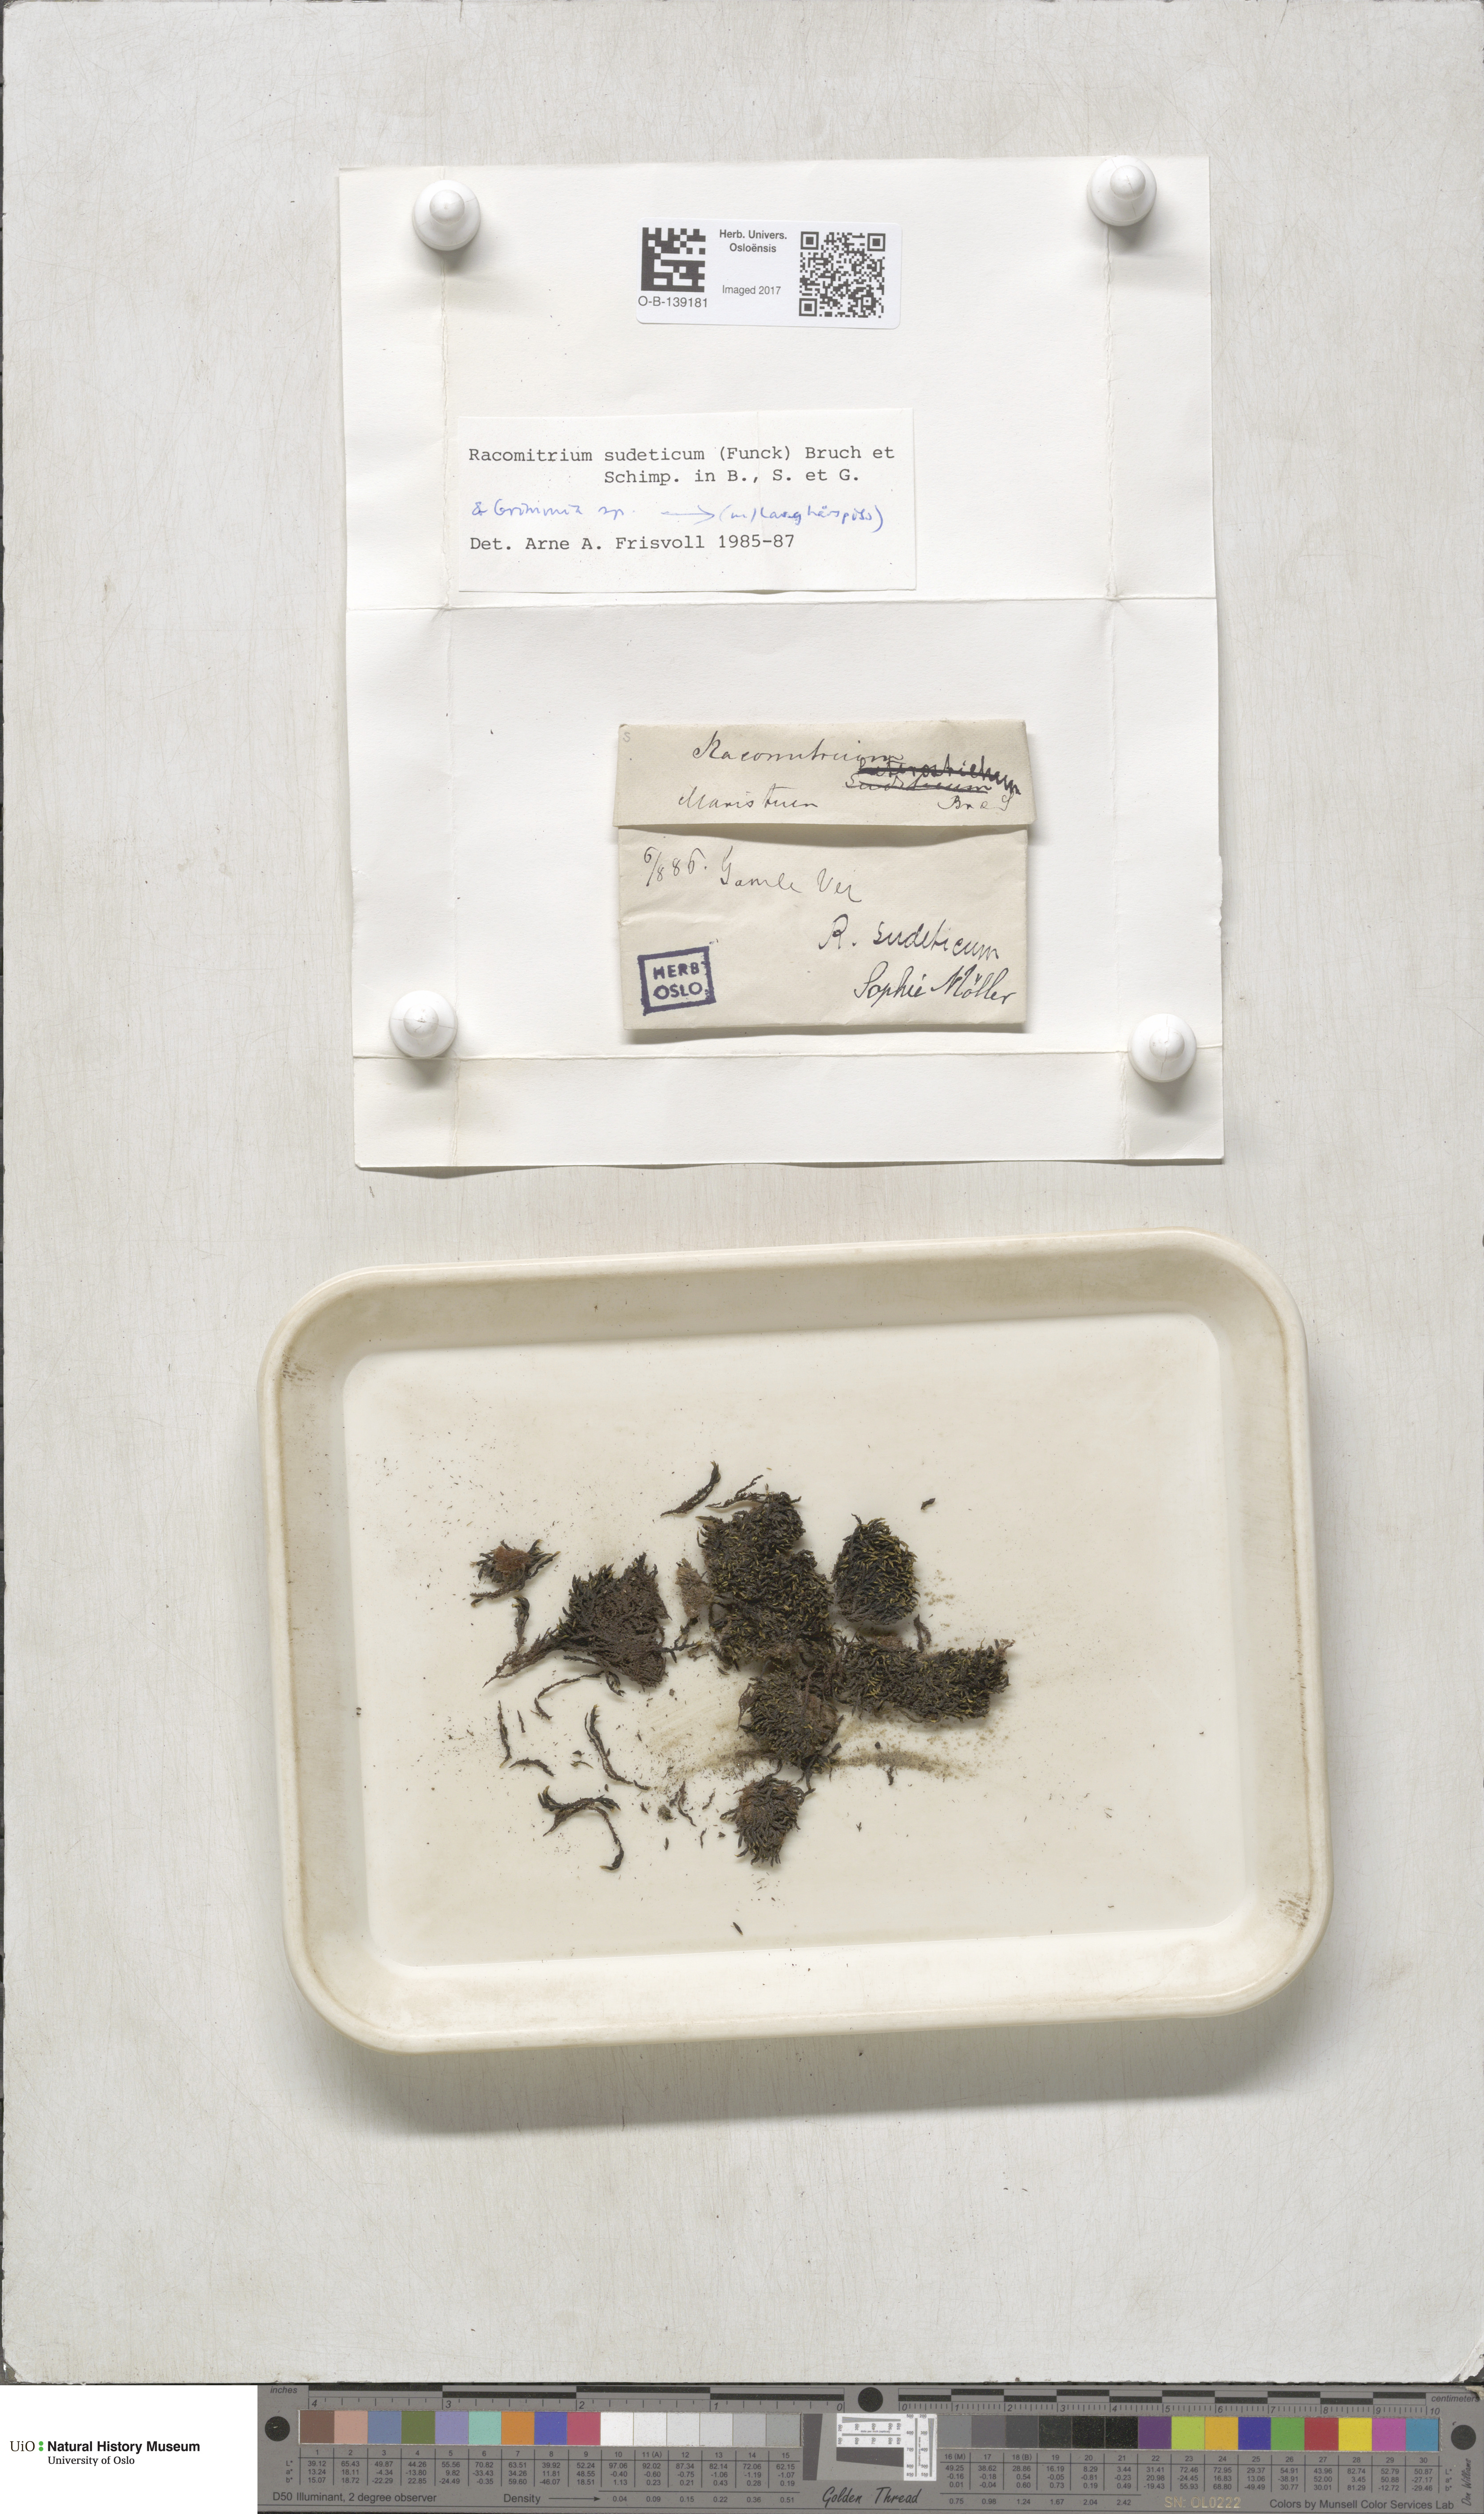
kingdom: Plantae
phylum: Bryophyta
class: Bryopsida
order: Grimmiales
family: Grimmiaceae
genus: Bucklandiella
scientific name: Bucklandiella sudetica
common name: Slender fringe-moss
